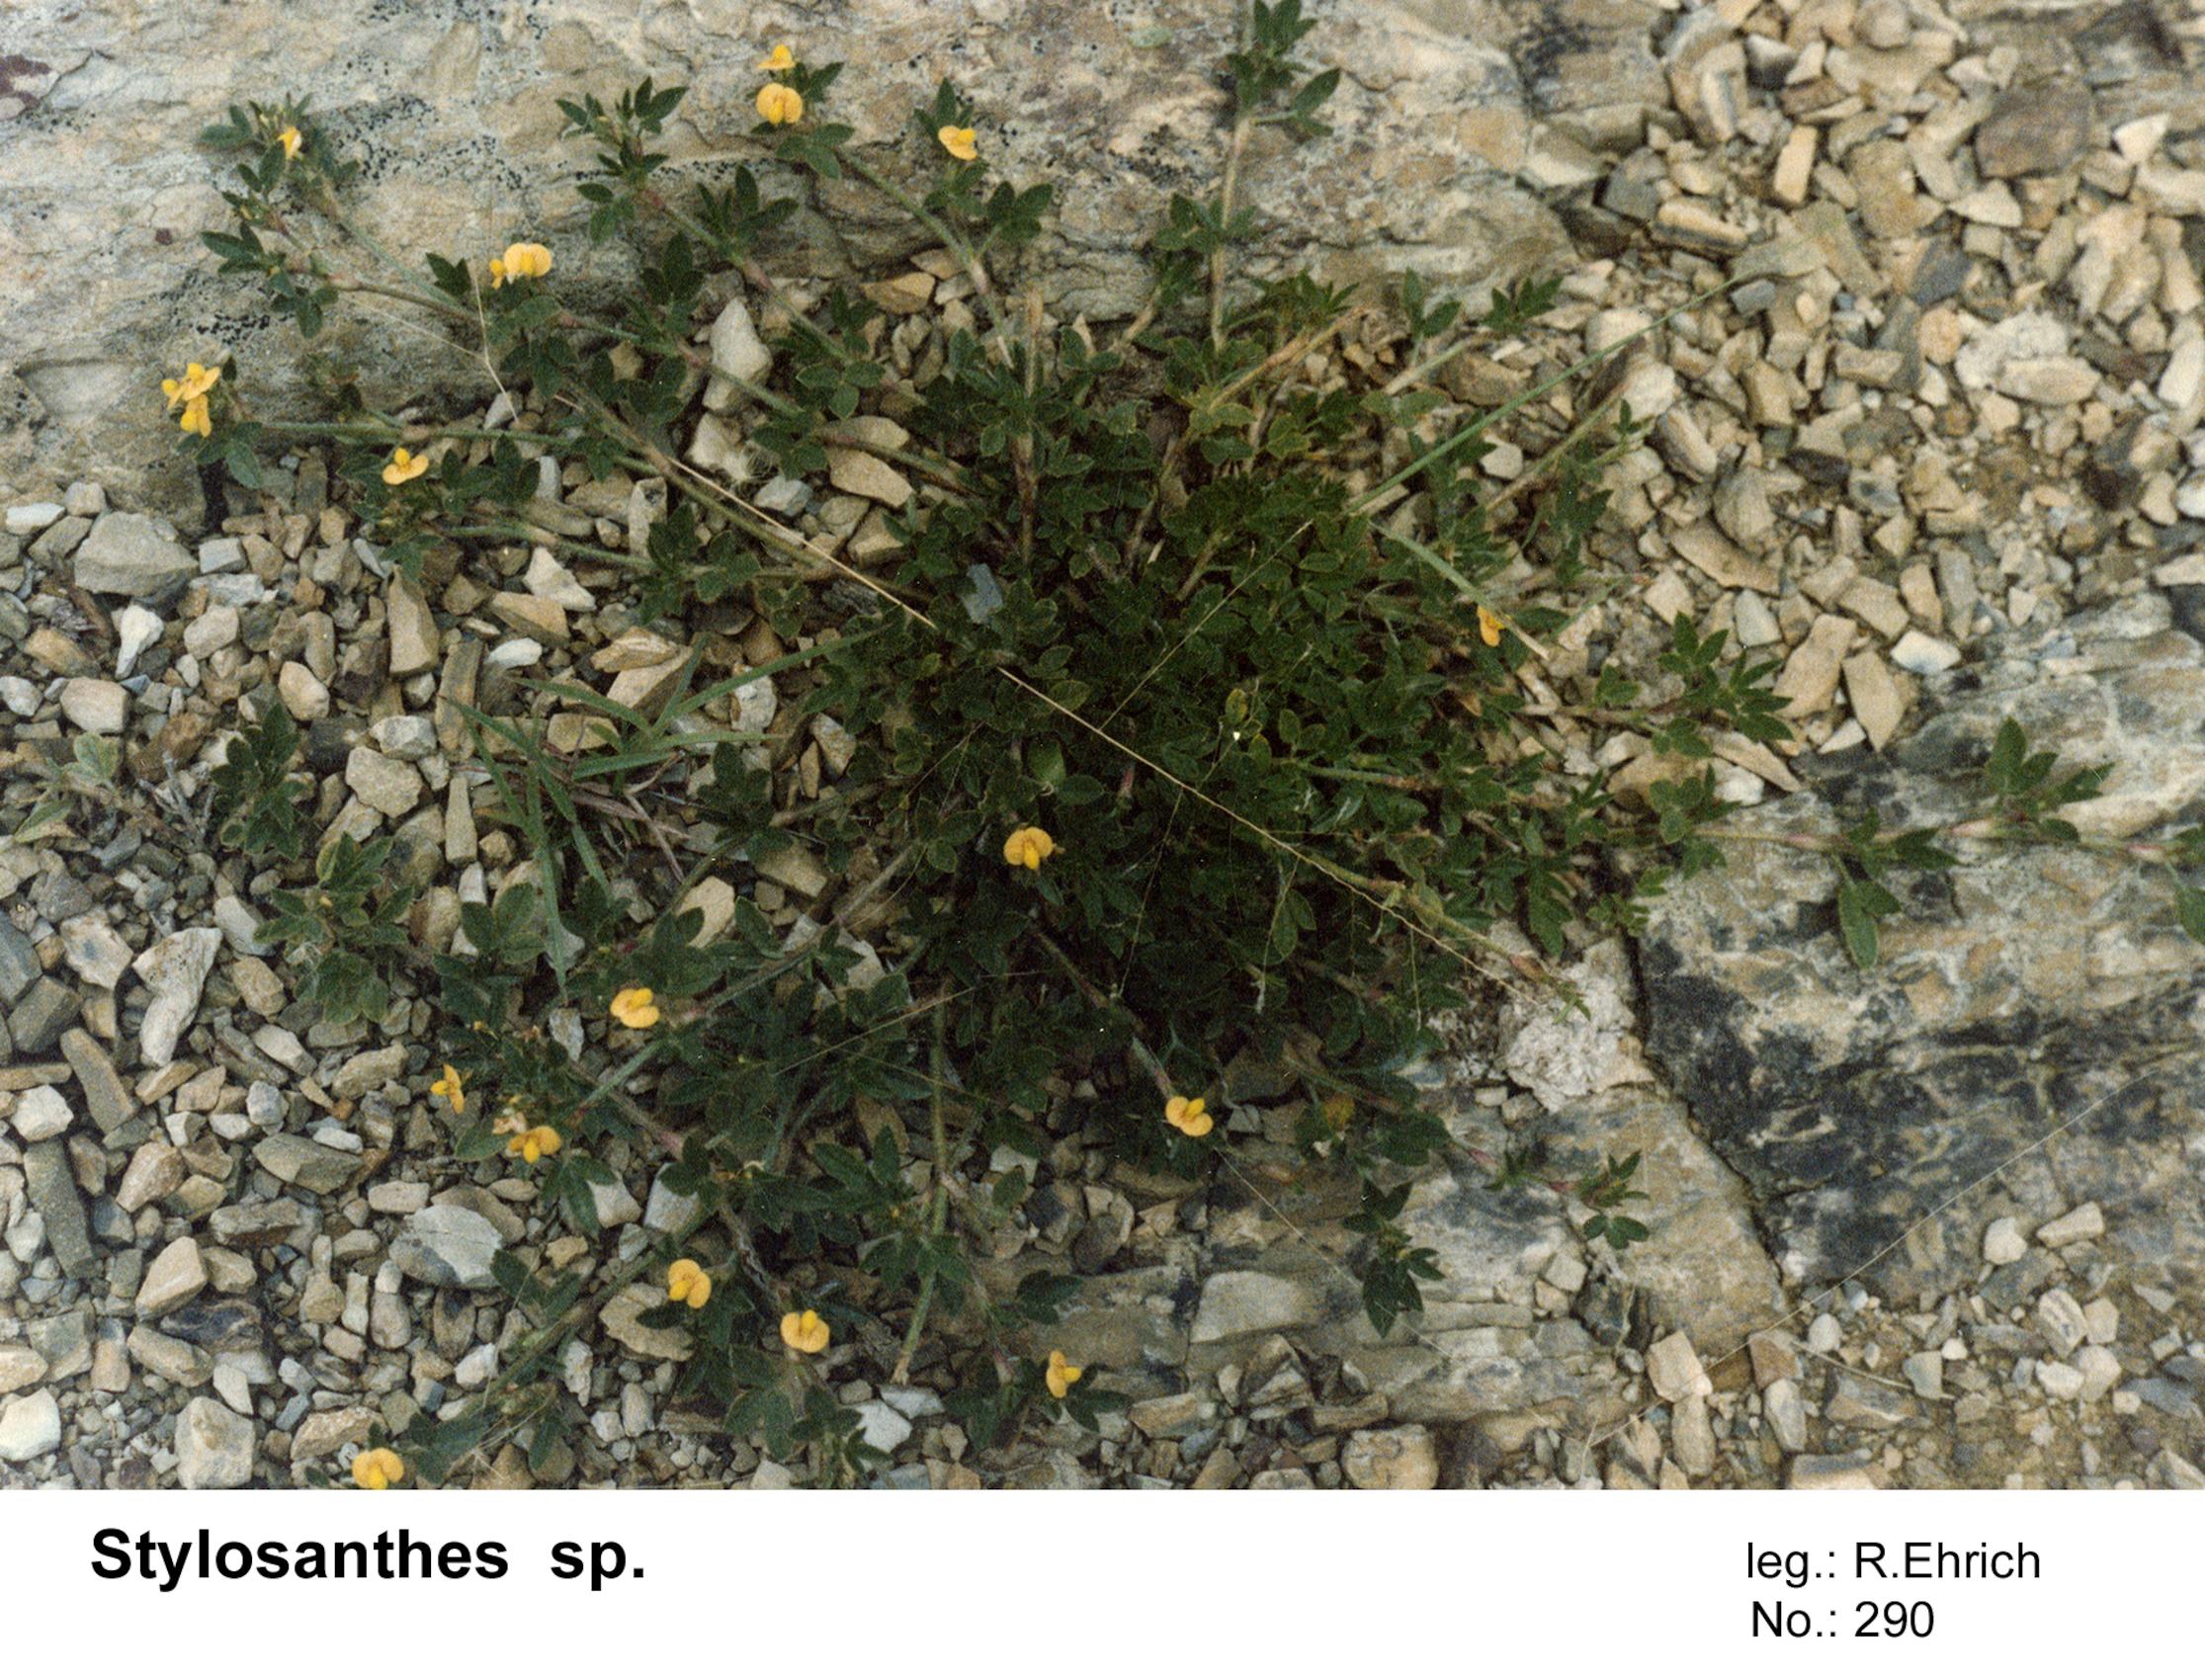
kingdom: Plantae
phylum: Tracheophyta
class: Magnoliopsida
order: Fabales
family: Fabaceae
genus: Stylosanthes
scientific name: Stylosanthes
